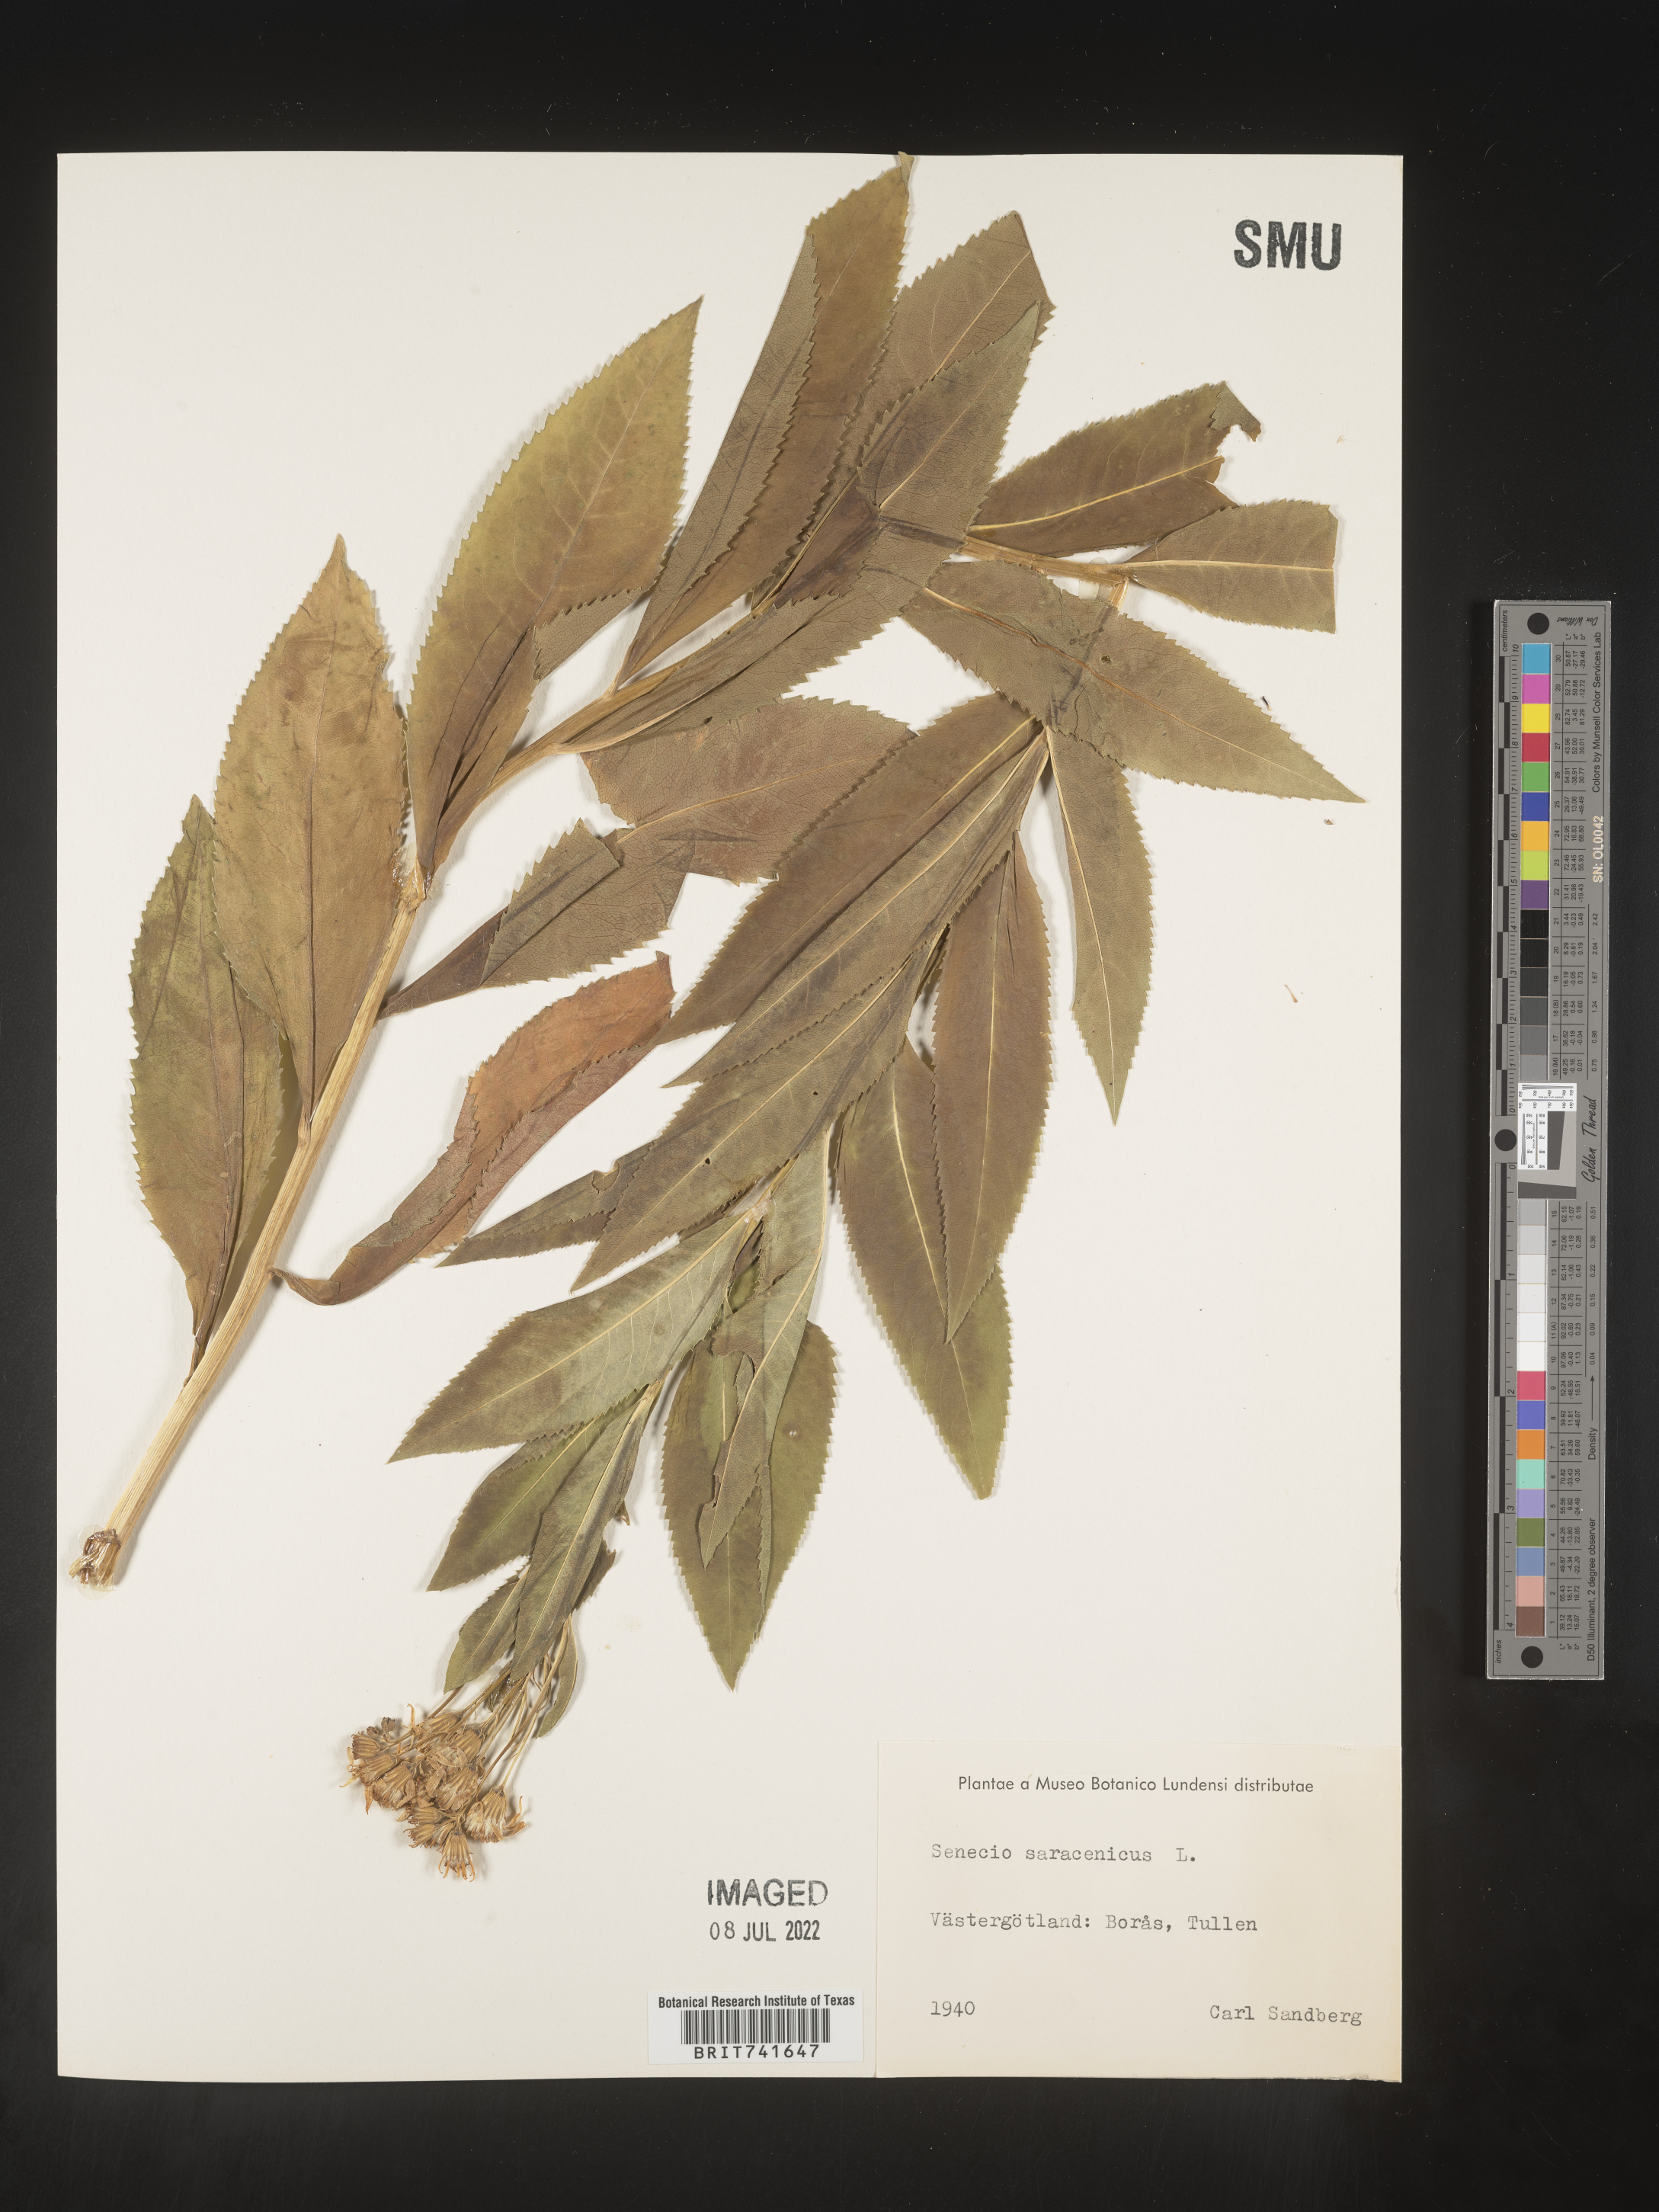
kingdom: Plantae
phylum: Tracheophyta
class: Magnoliopsida
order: Asterales
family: Asteraceae
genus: Senecio
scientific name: Senecio
